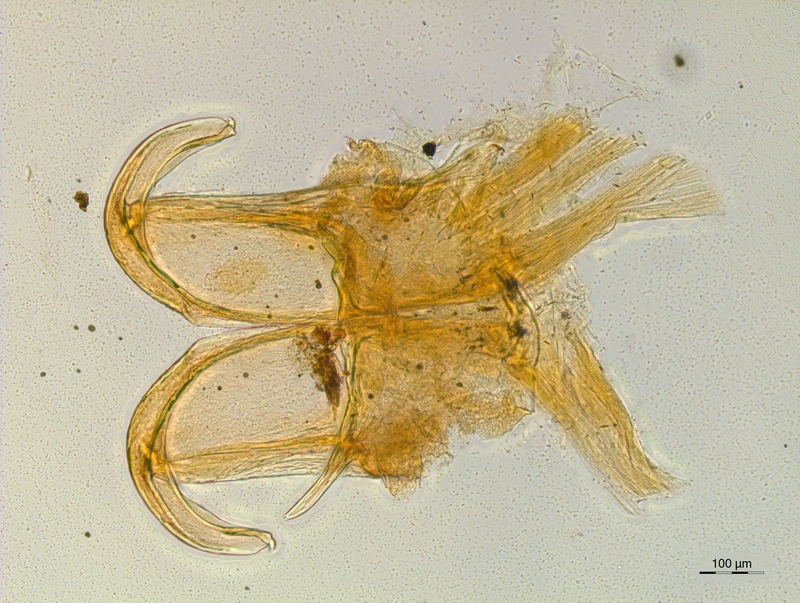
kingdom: Animalia
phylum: Arthropoda
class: Diplopoda
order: Chordeumatida
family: Craspedosomatidae
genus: Atractosoma
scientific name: Atractosoma marinense
